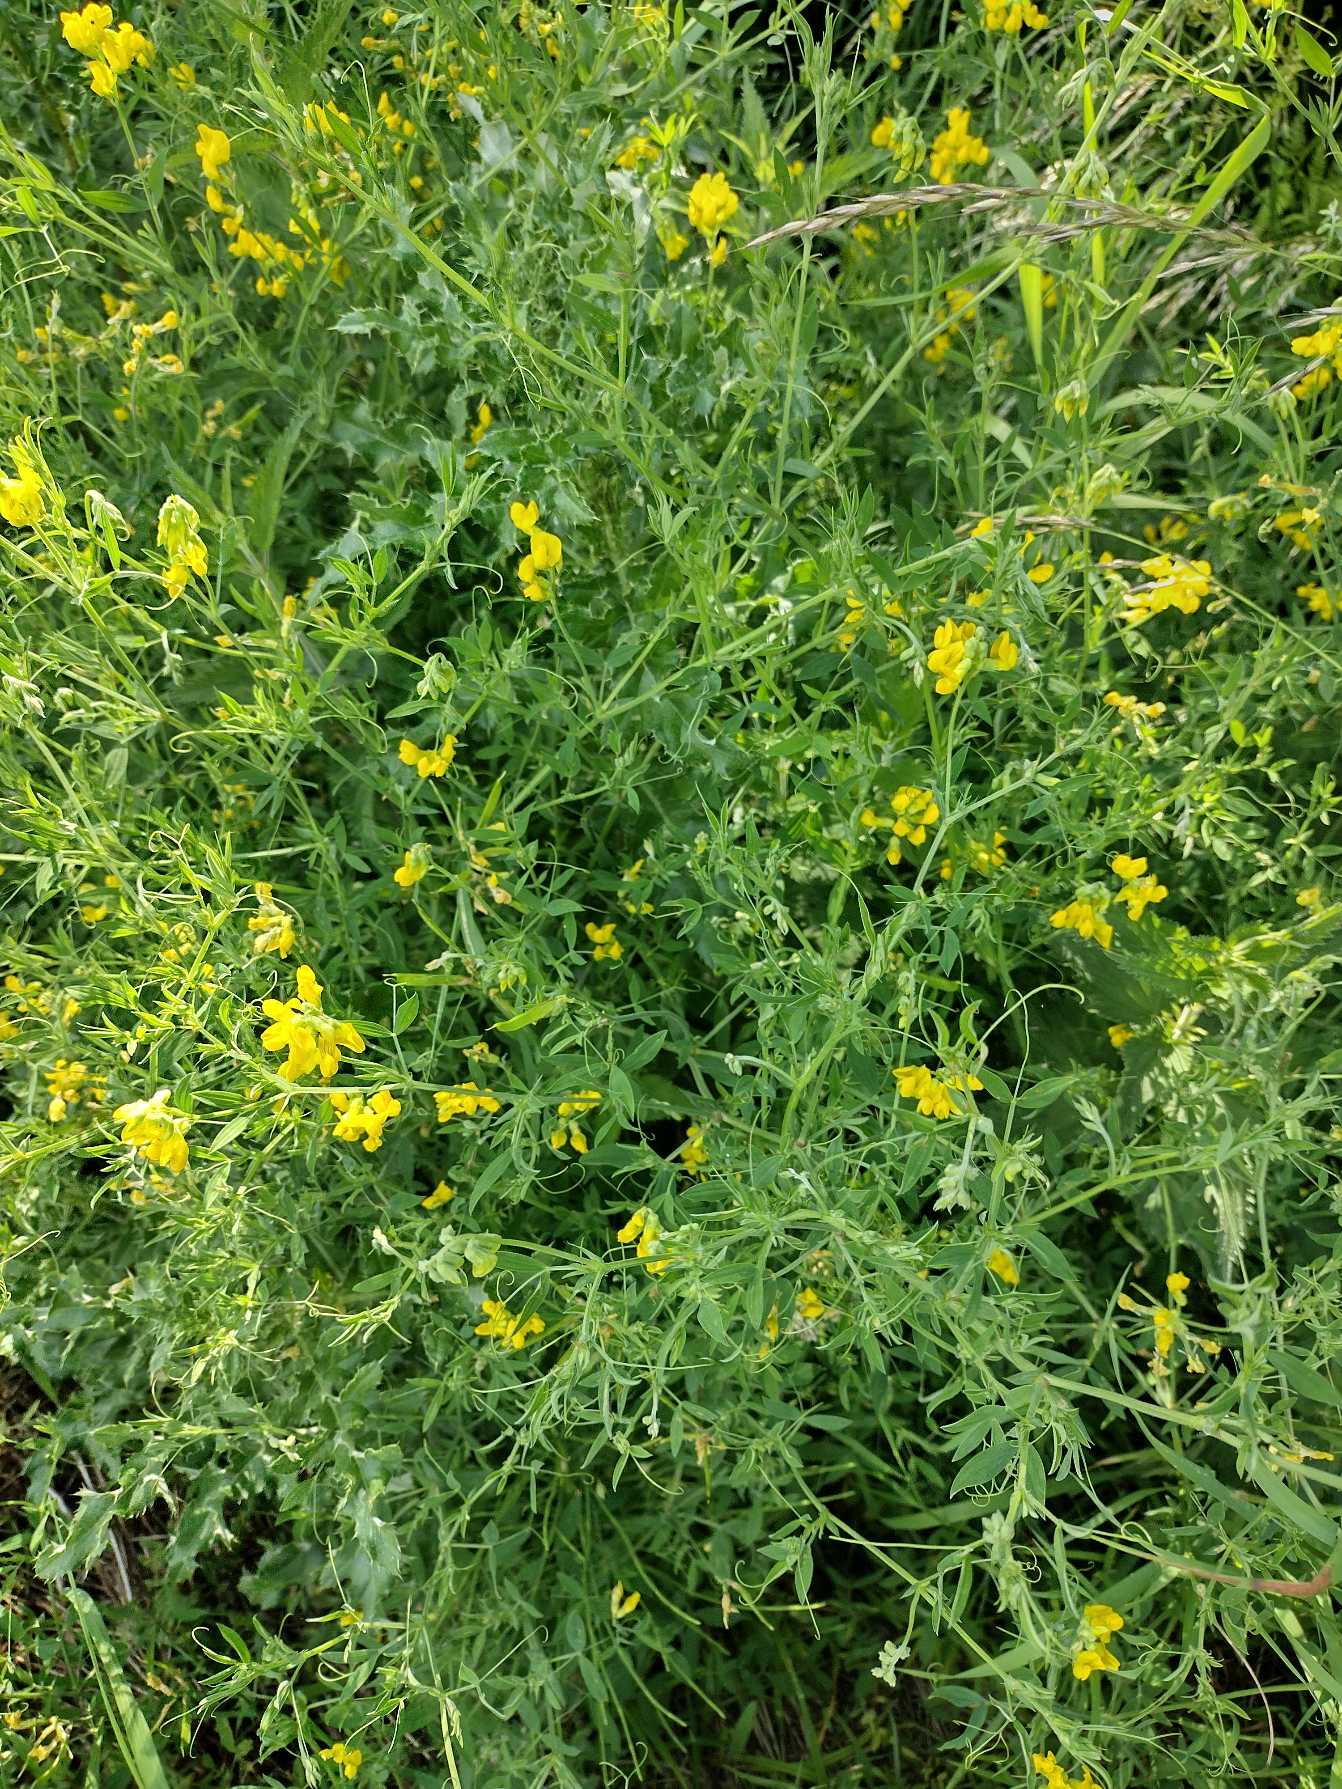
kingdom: Plantae
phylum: Tracheophyta
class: Magnoliopsida
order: Fabales
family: Fabaceae
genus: Lathyrus
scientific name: Lathyrus pratensis
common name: Gul fladbælg
